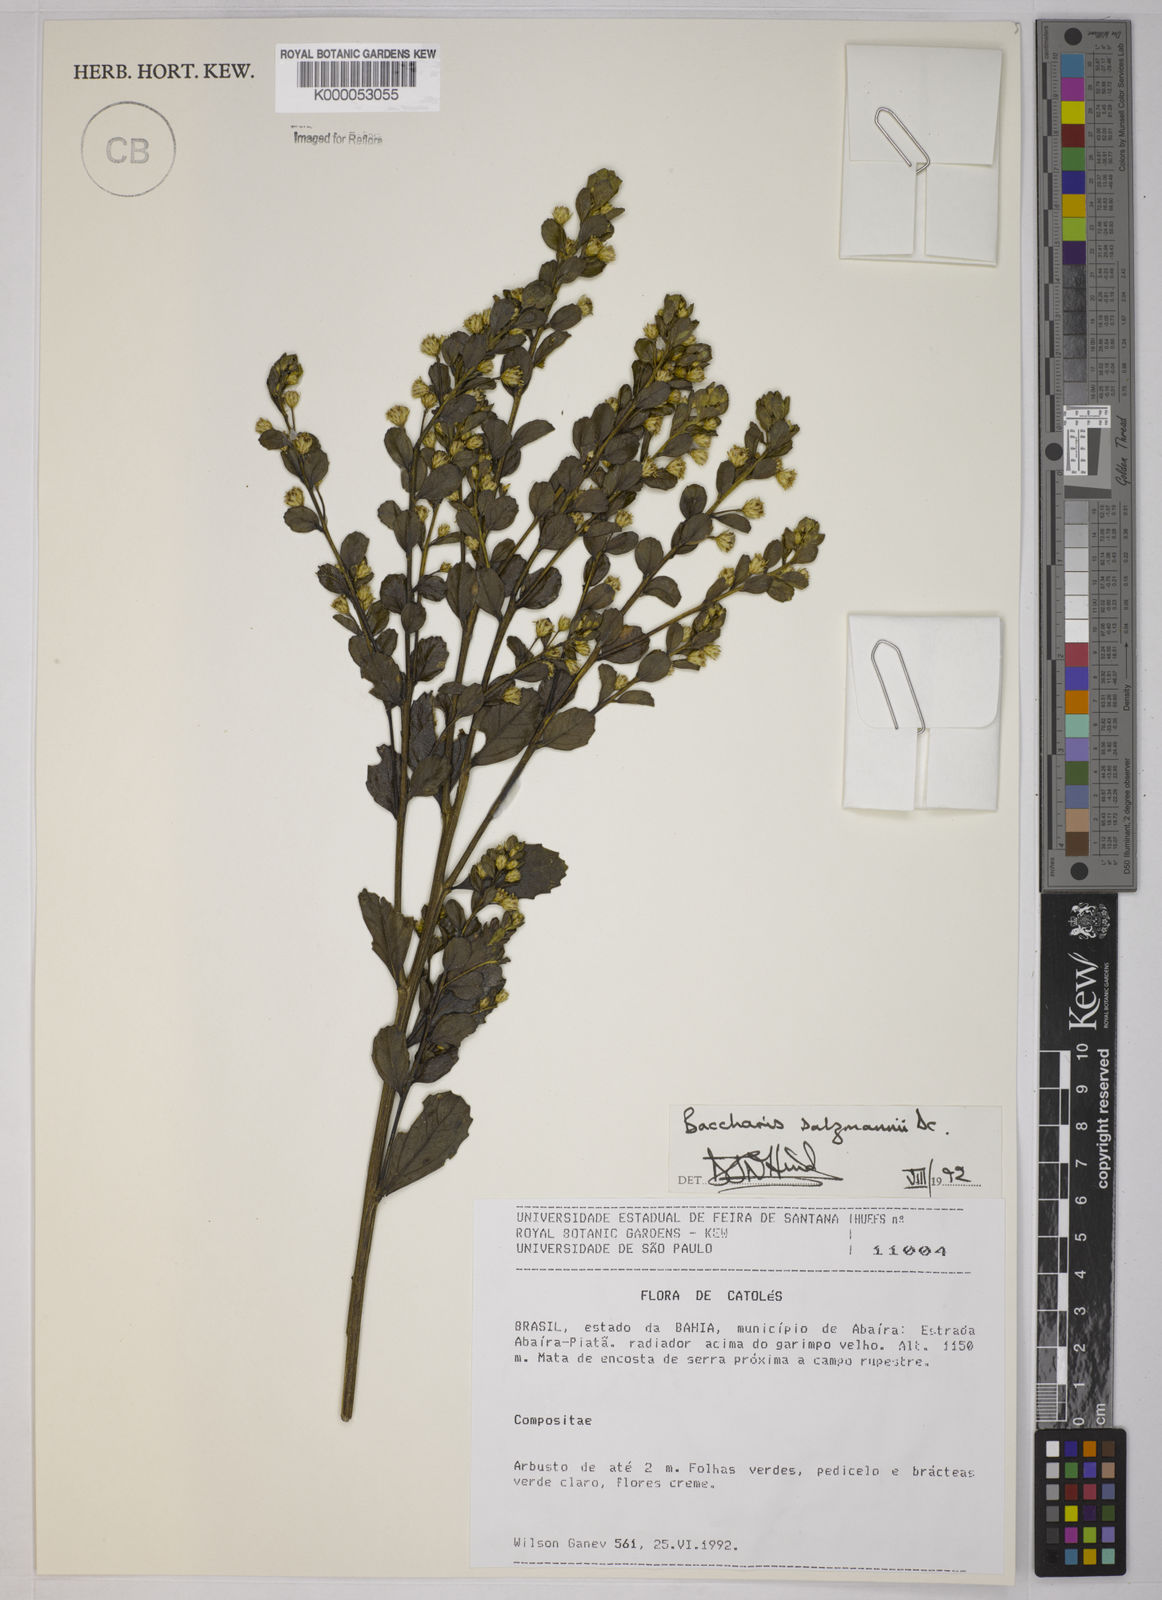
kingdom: Plantae
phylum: Tracheophyta
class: Magnoliopsida
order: Asterales
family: Asteraceae
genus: Baccharis
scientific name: Baccharis retusa
